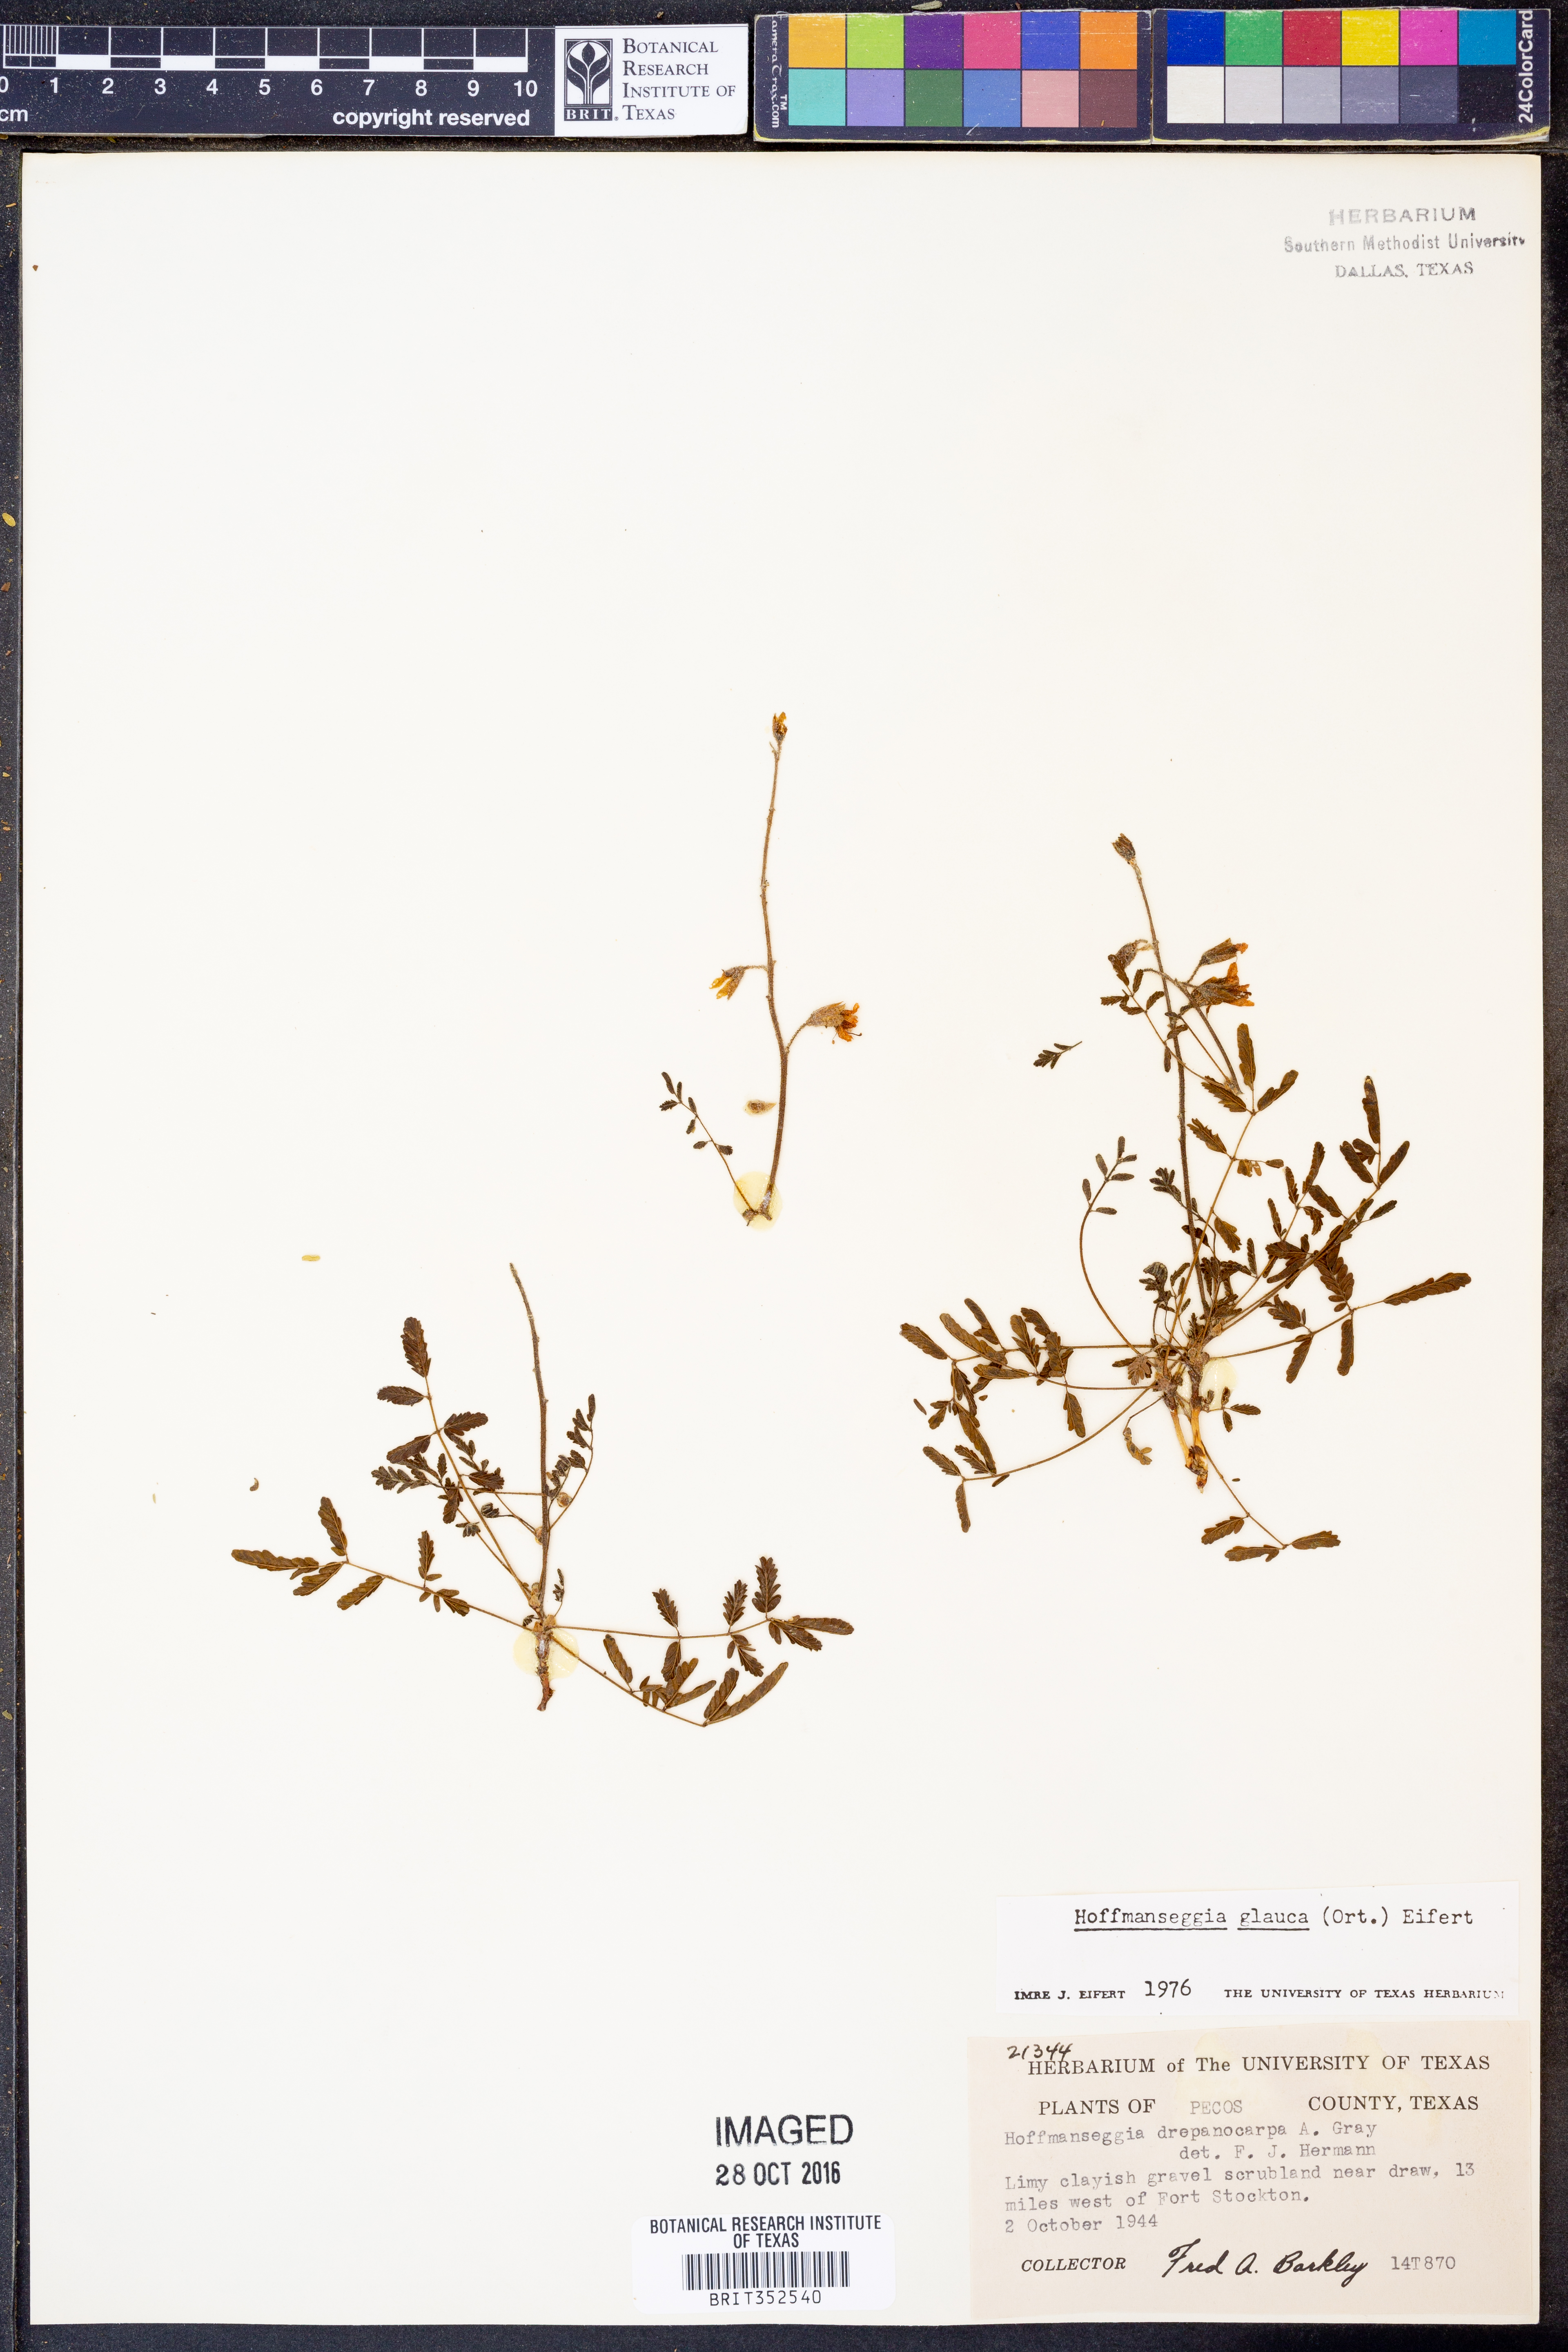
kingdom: Plantae
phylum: Tracheophyta
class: Magnoliopsida
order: Fabales
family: Fabaceae
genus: Hoffmannseggia
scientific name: Hoffmannseggia glauca
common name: Pignut
